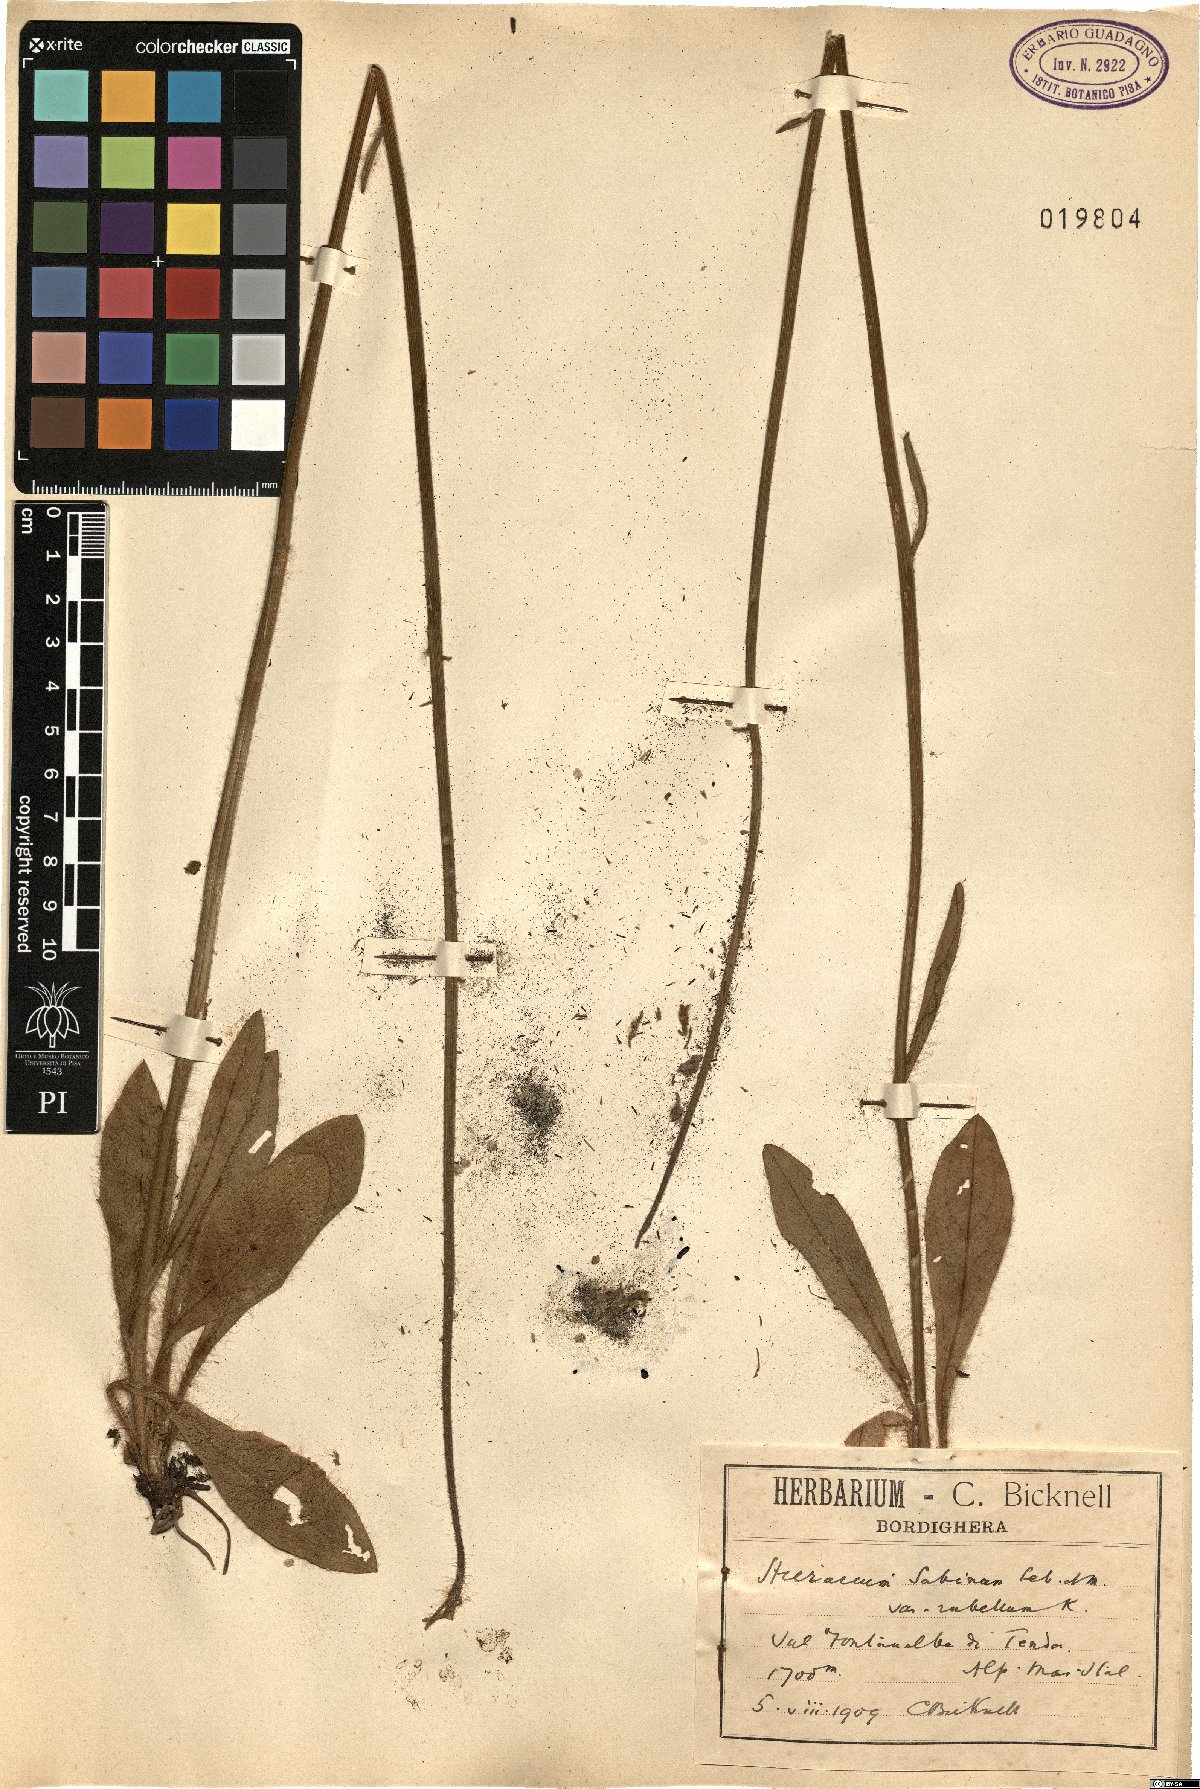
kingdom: Plantae
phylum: Tracheophyta
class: Magnoliopsida
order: Asterales
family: Asteraceae
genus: Pilosella
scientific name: Pilosella guthnikiana
